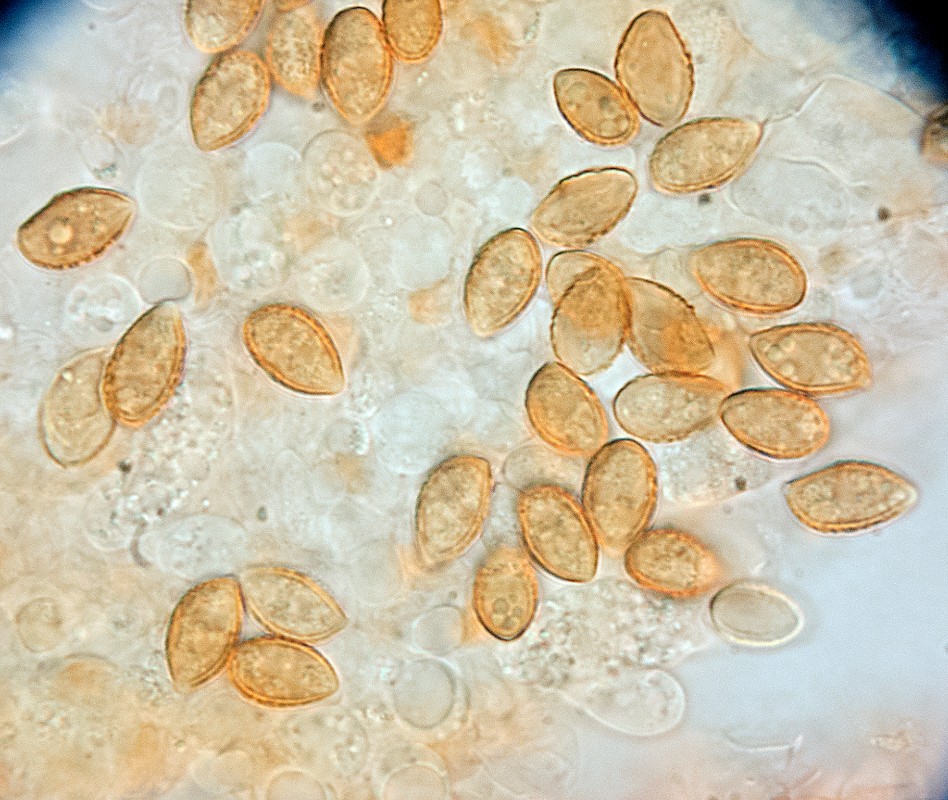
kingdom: Fungi
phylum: Basidiomycota
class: Agaricomycetes
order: Agaricales
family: Hymenogastraceae
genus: Galerina
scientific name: Galerina atkinsoniana
